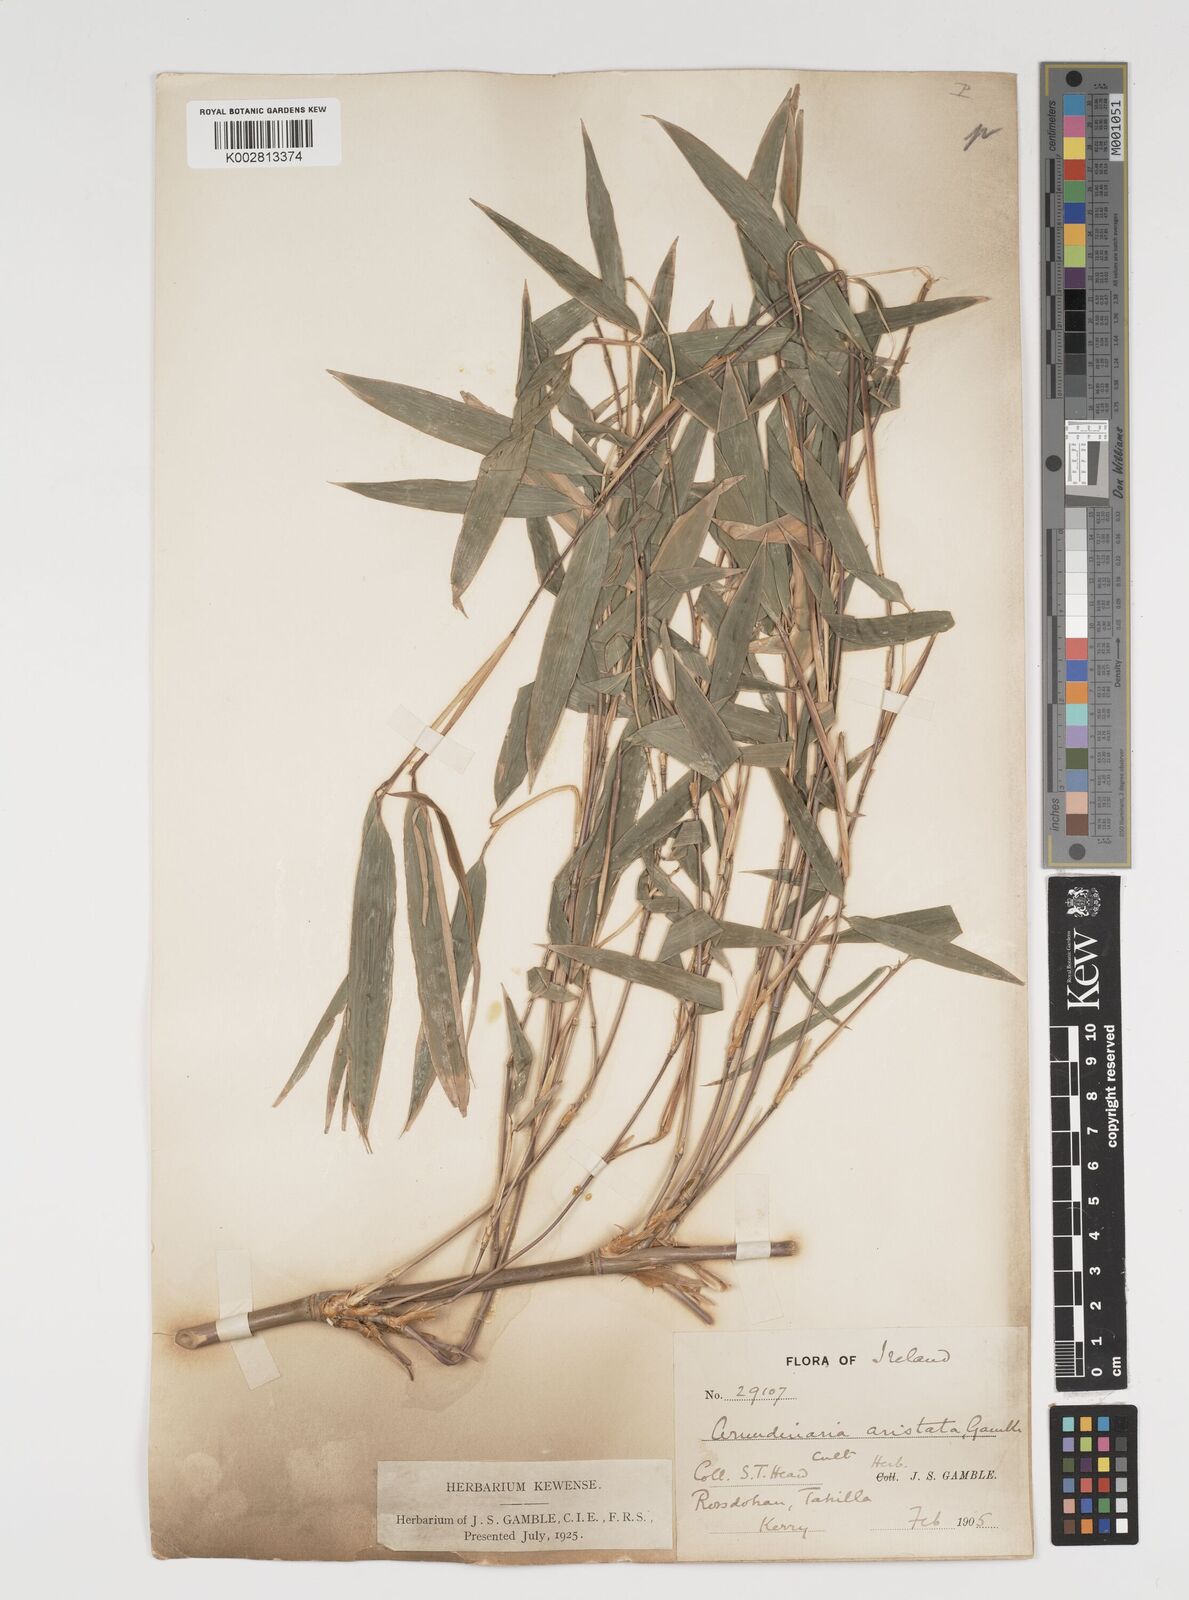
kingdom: Plantae
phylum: Tracheophyta
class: Liliopsida
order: Poales
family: Poaceae
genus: Thamnocalamus
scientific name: Thamnocalamus spathiflorus
